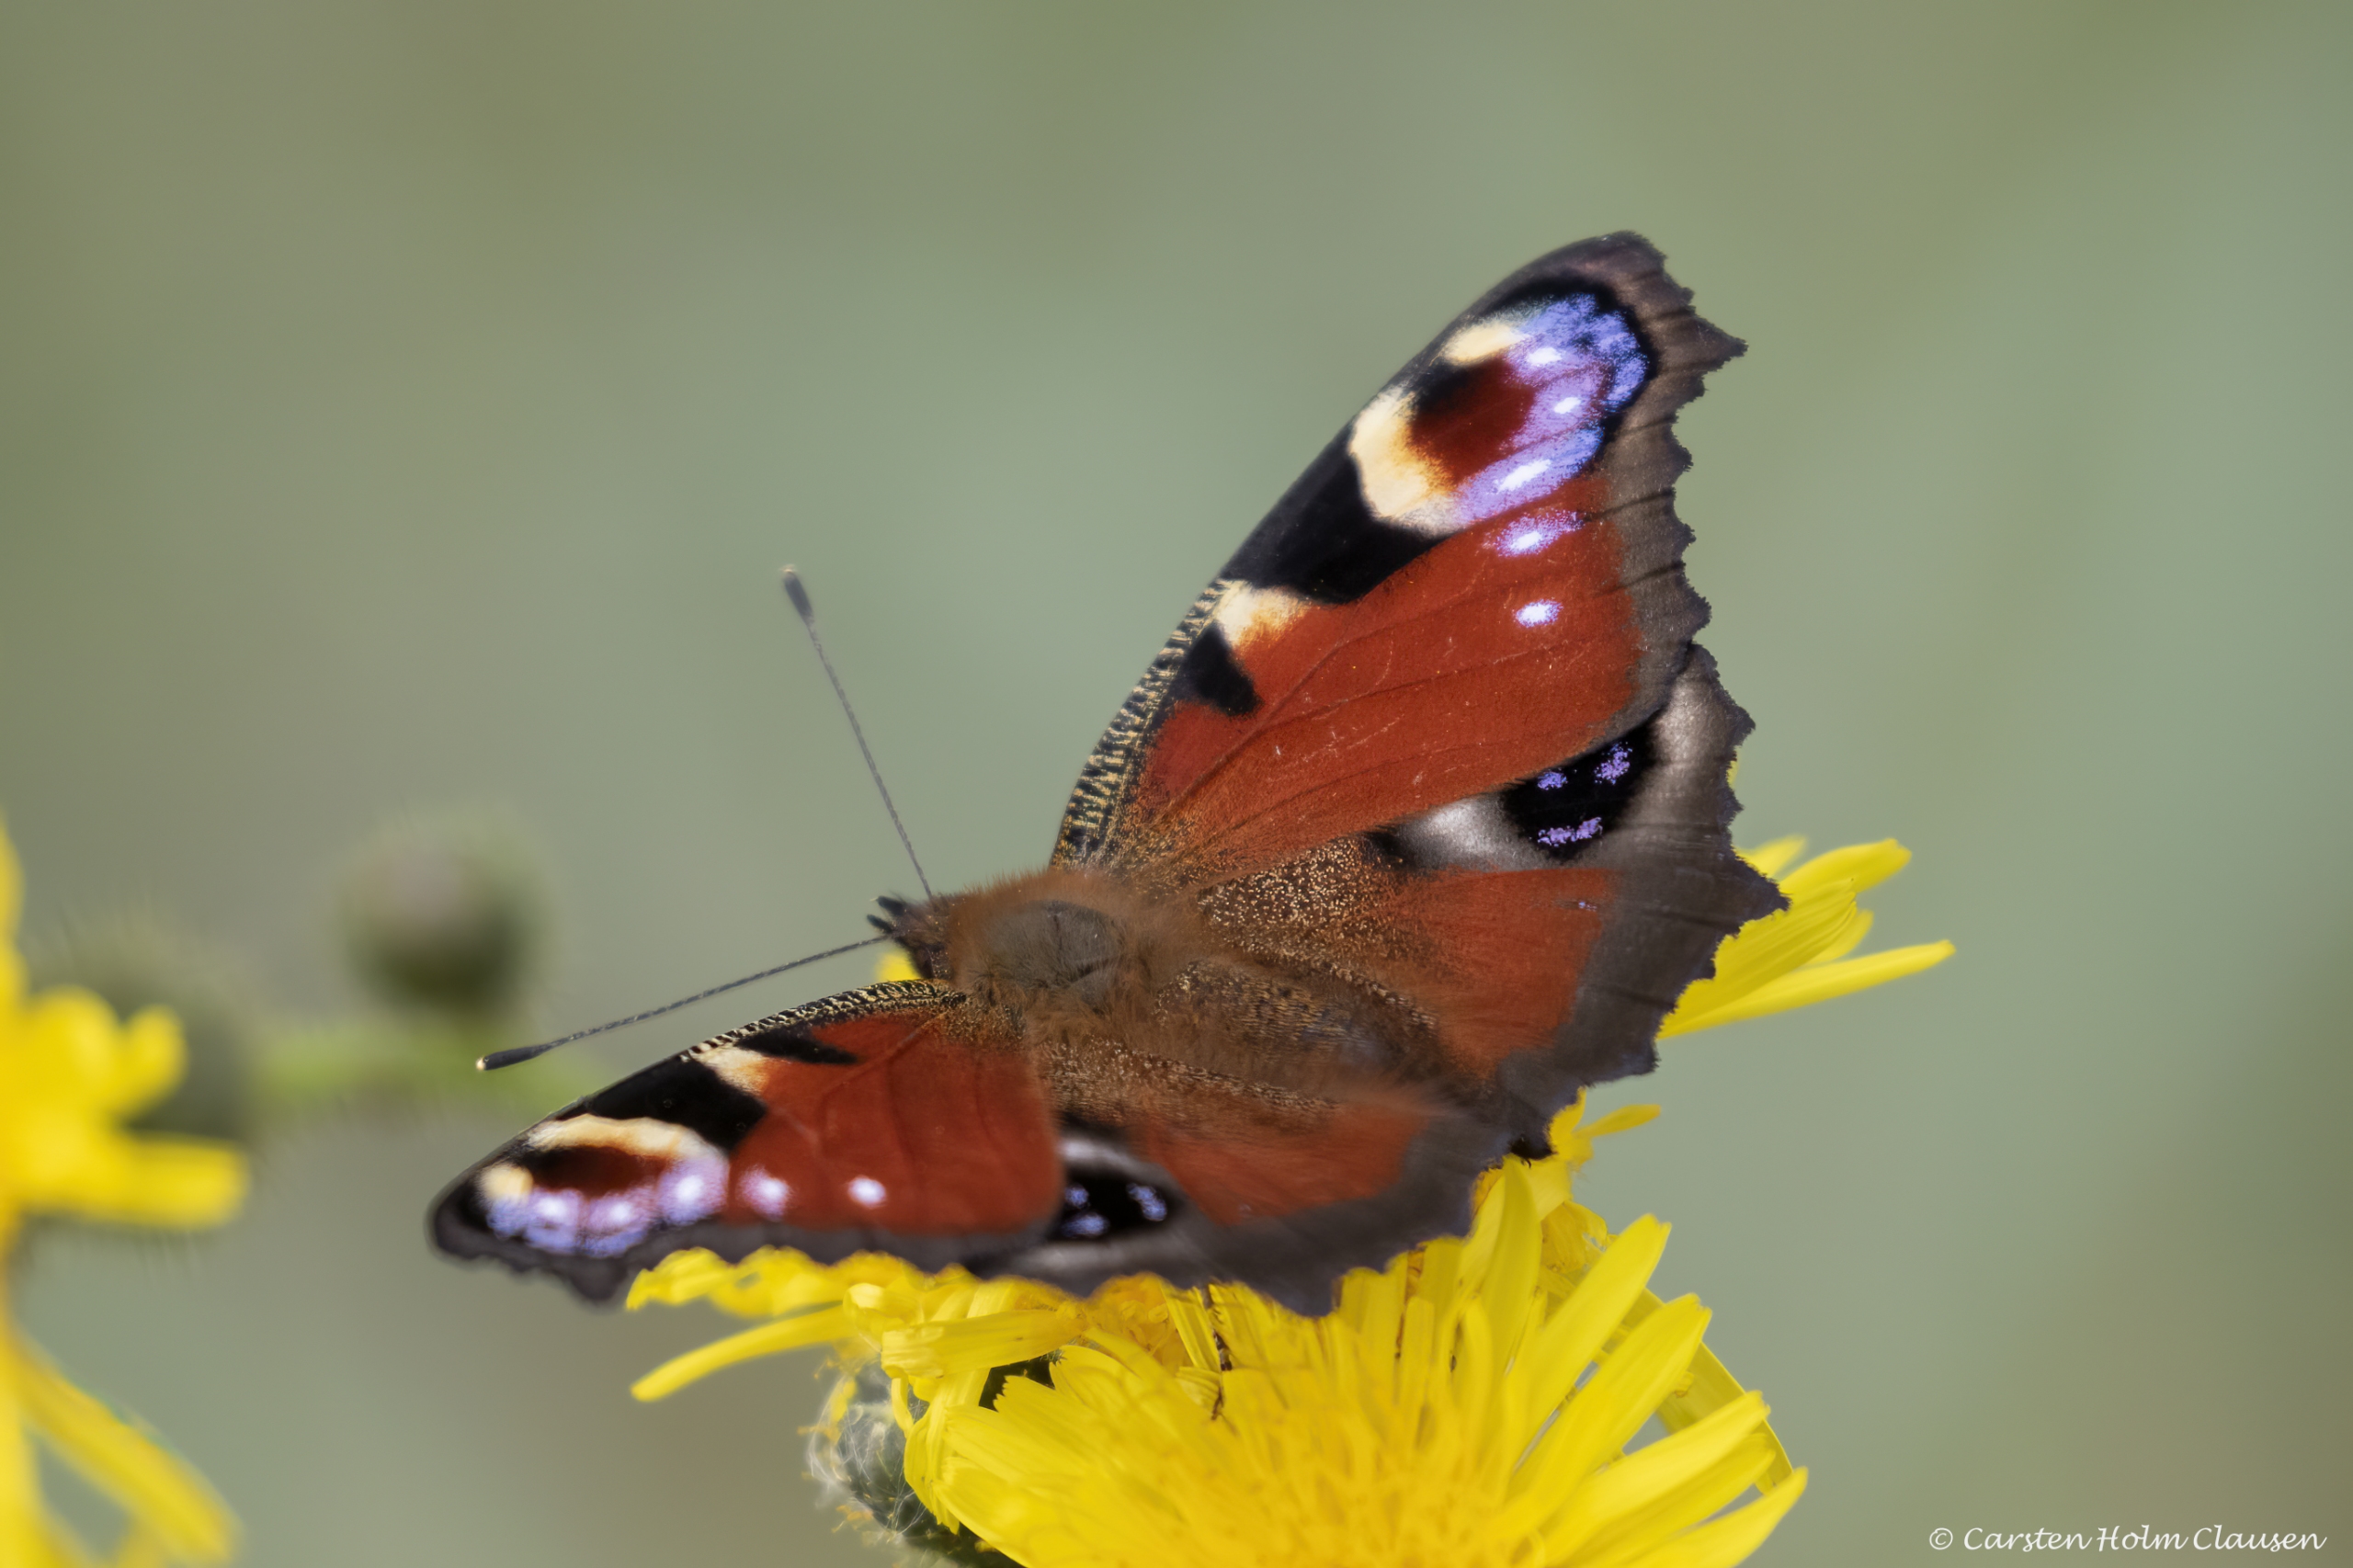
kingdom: Animalia
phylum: Arthropoda
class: Insecta
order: Lepidoptera
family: Nymphalidae
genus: Aglais
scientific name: Aglais io
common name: Dagpåfugleøje
